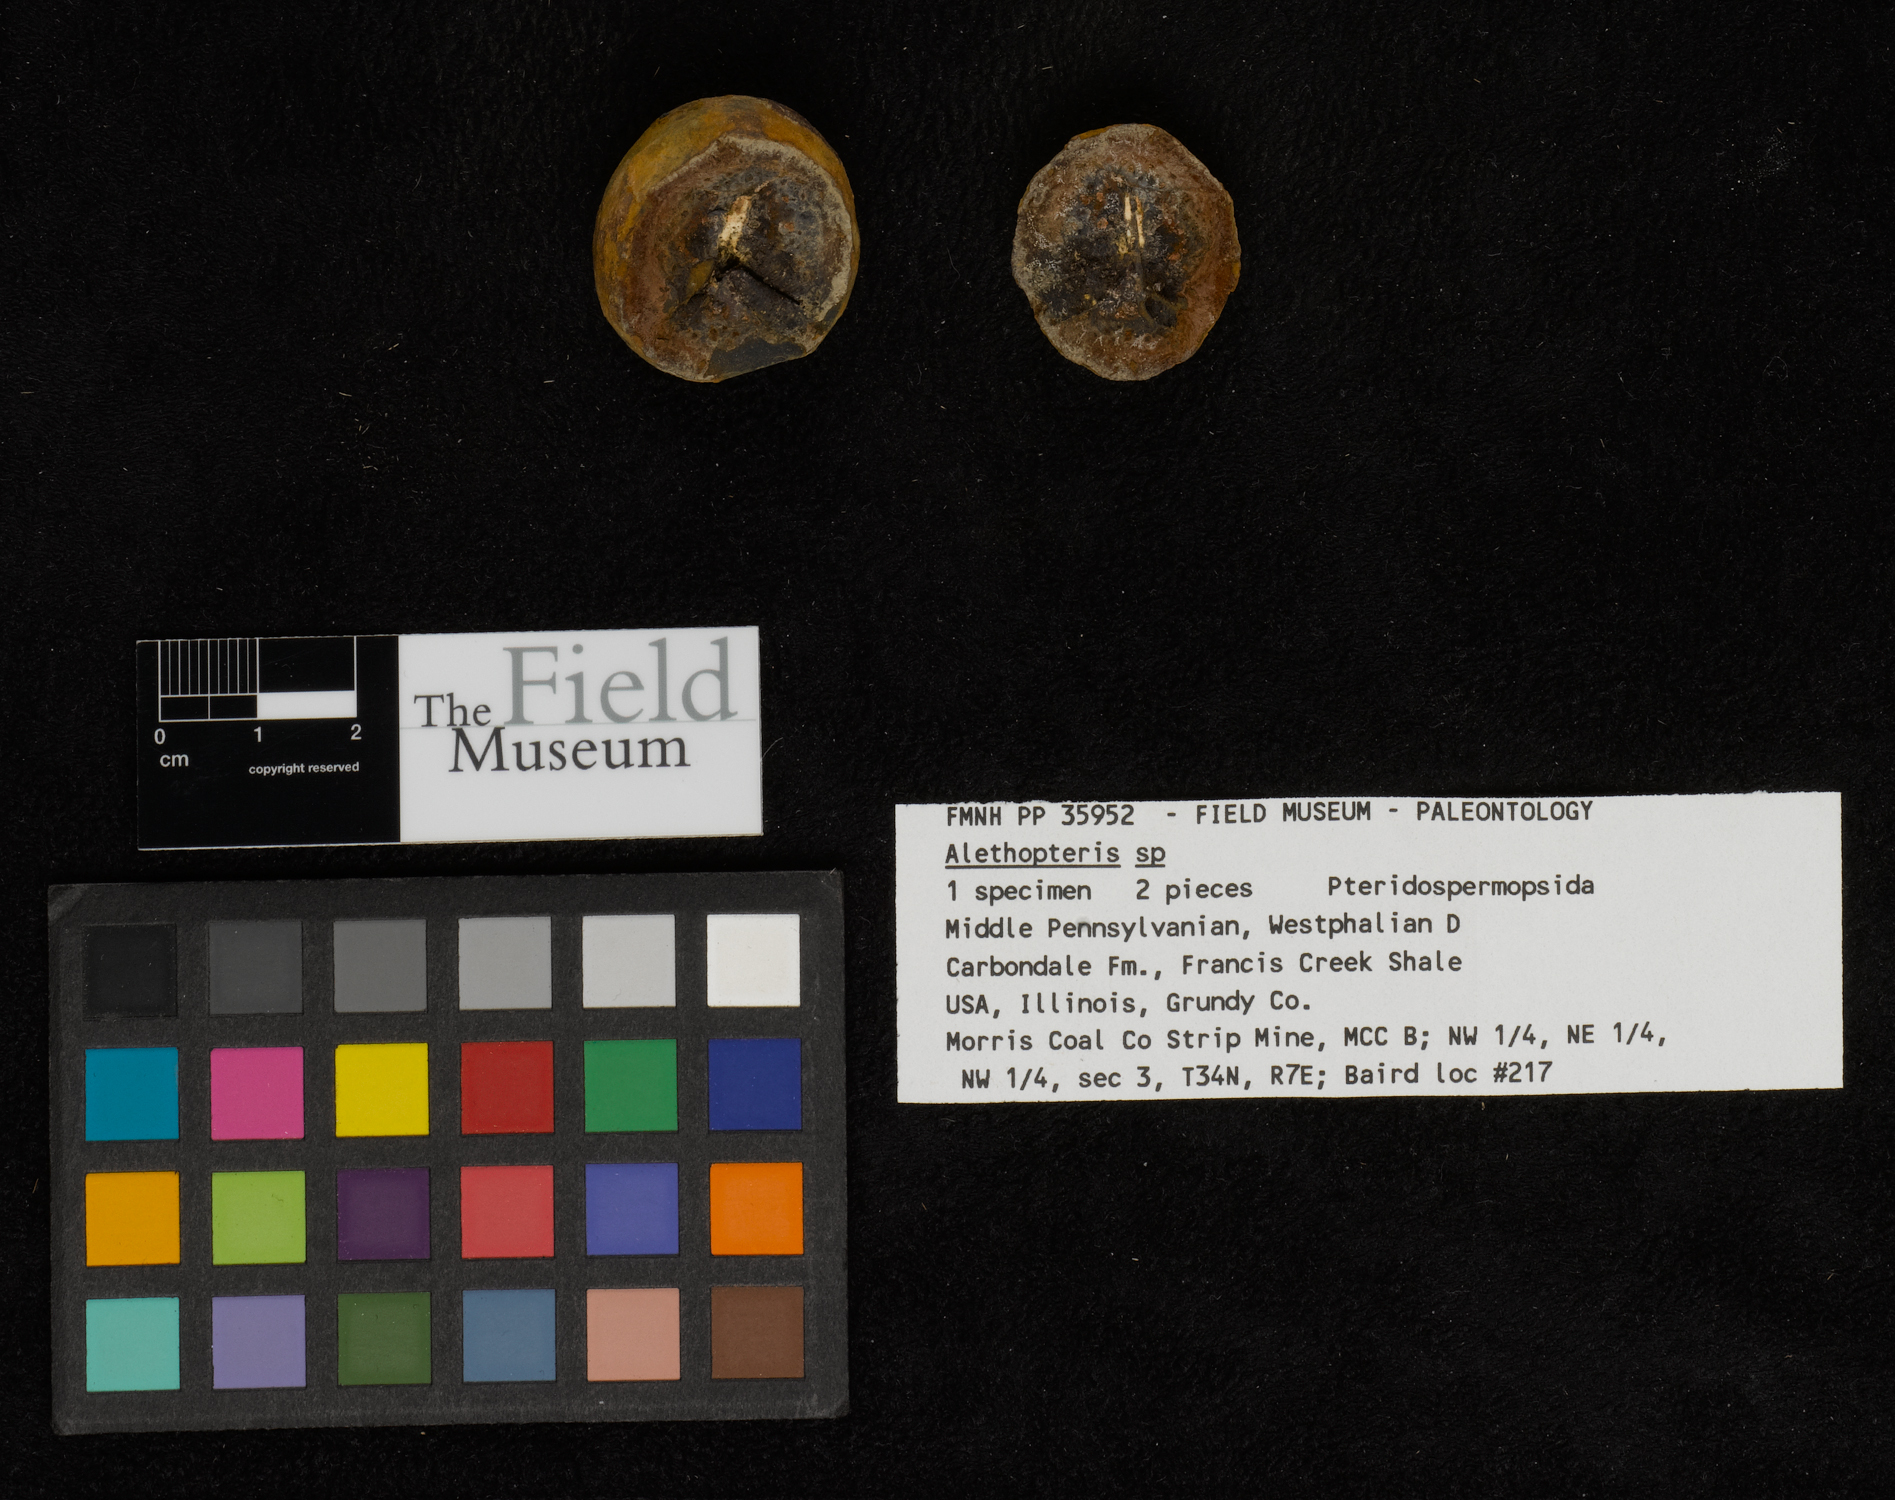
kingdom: Plantae
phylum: Tracheophyta
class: Polypodiopsida
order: Marattiales
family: Asterothecaceae
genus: Pecopteris
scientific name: Pecopteris
